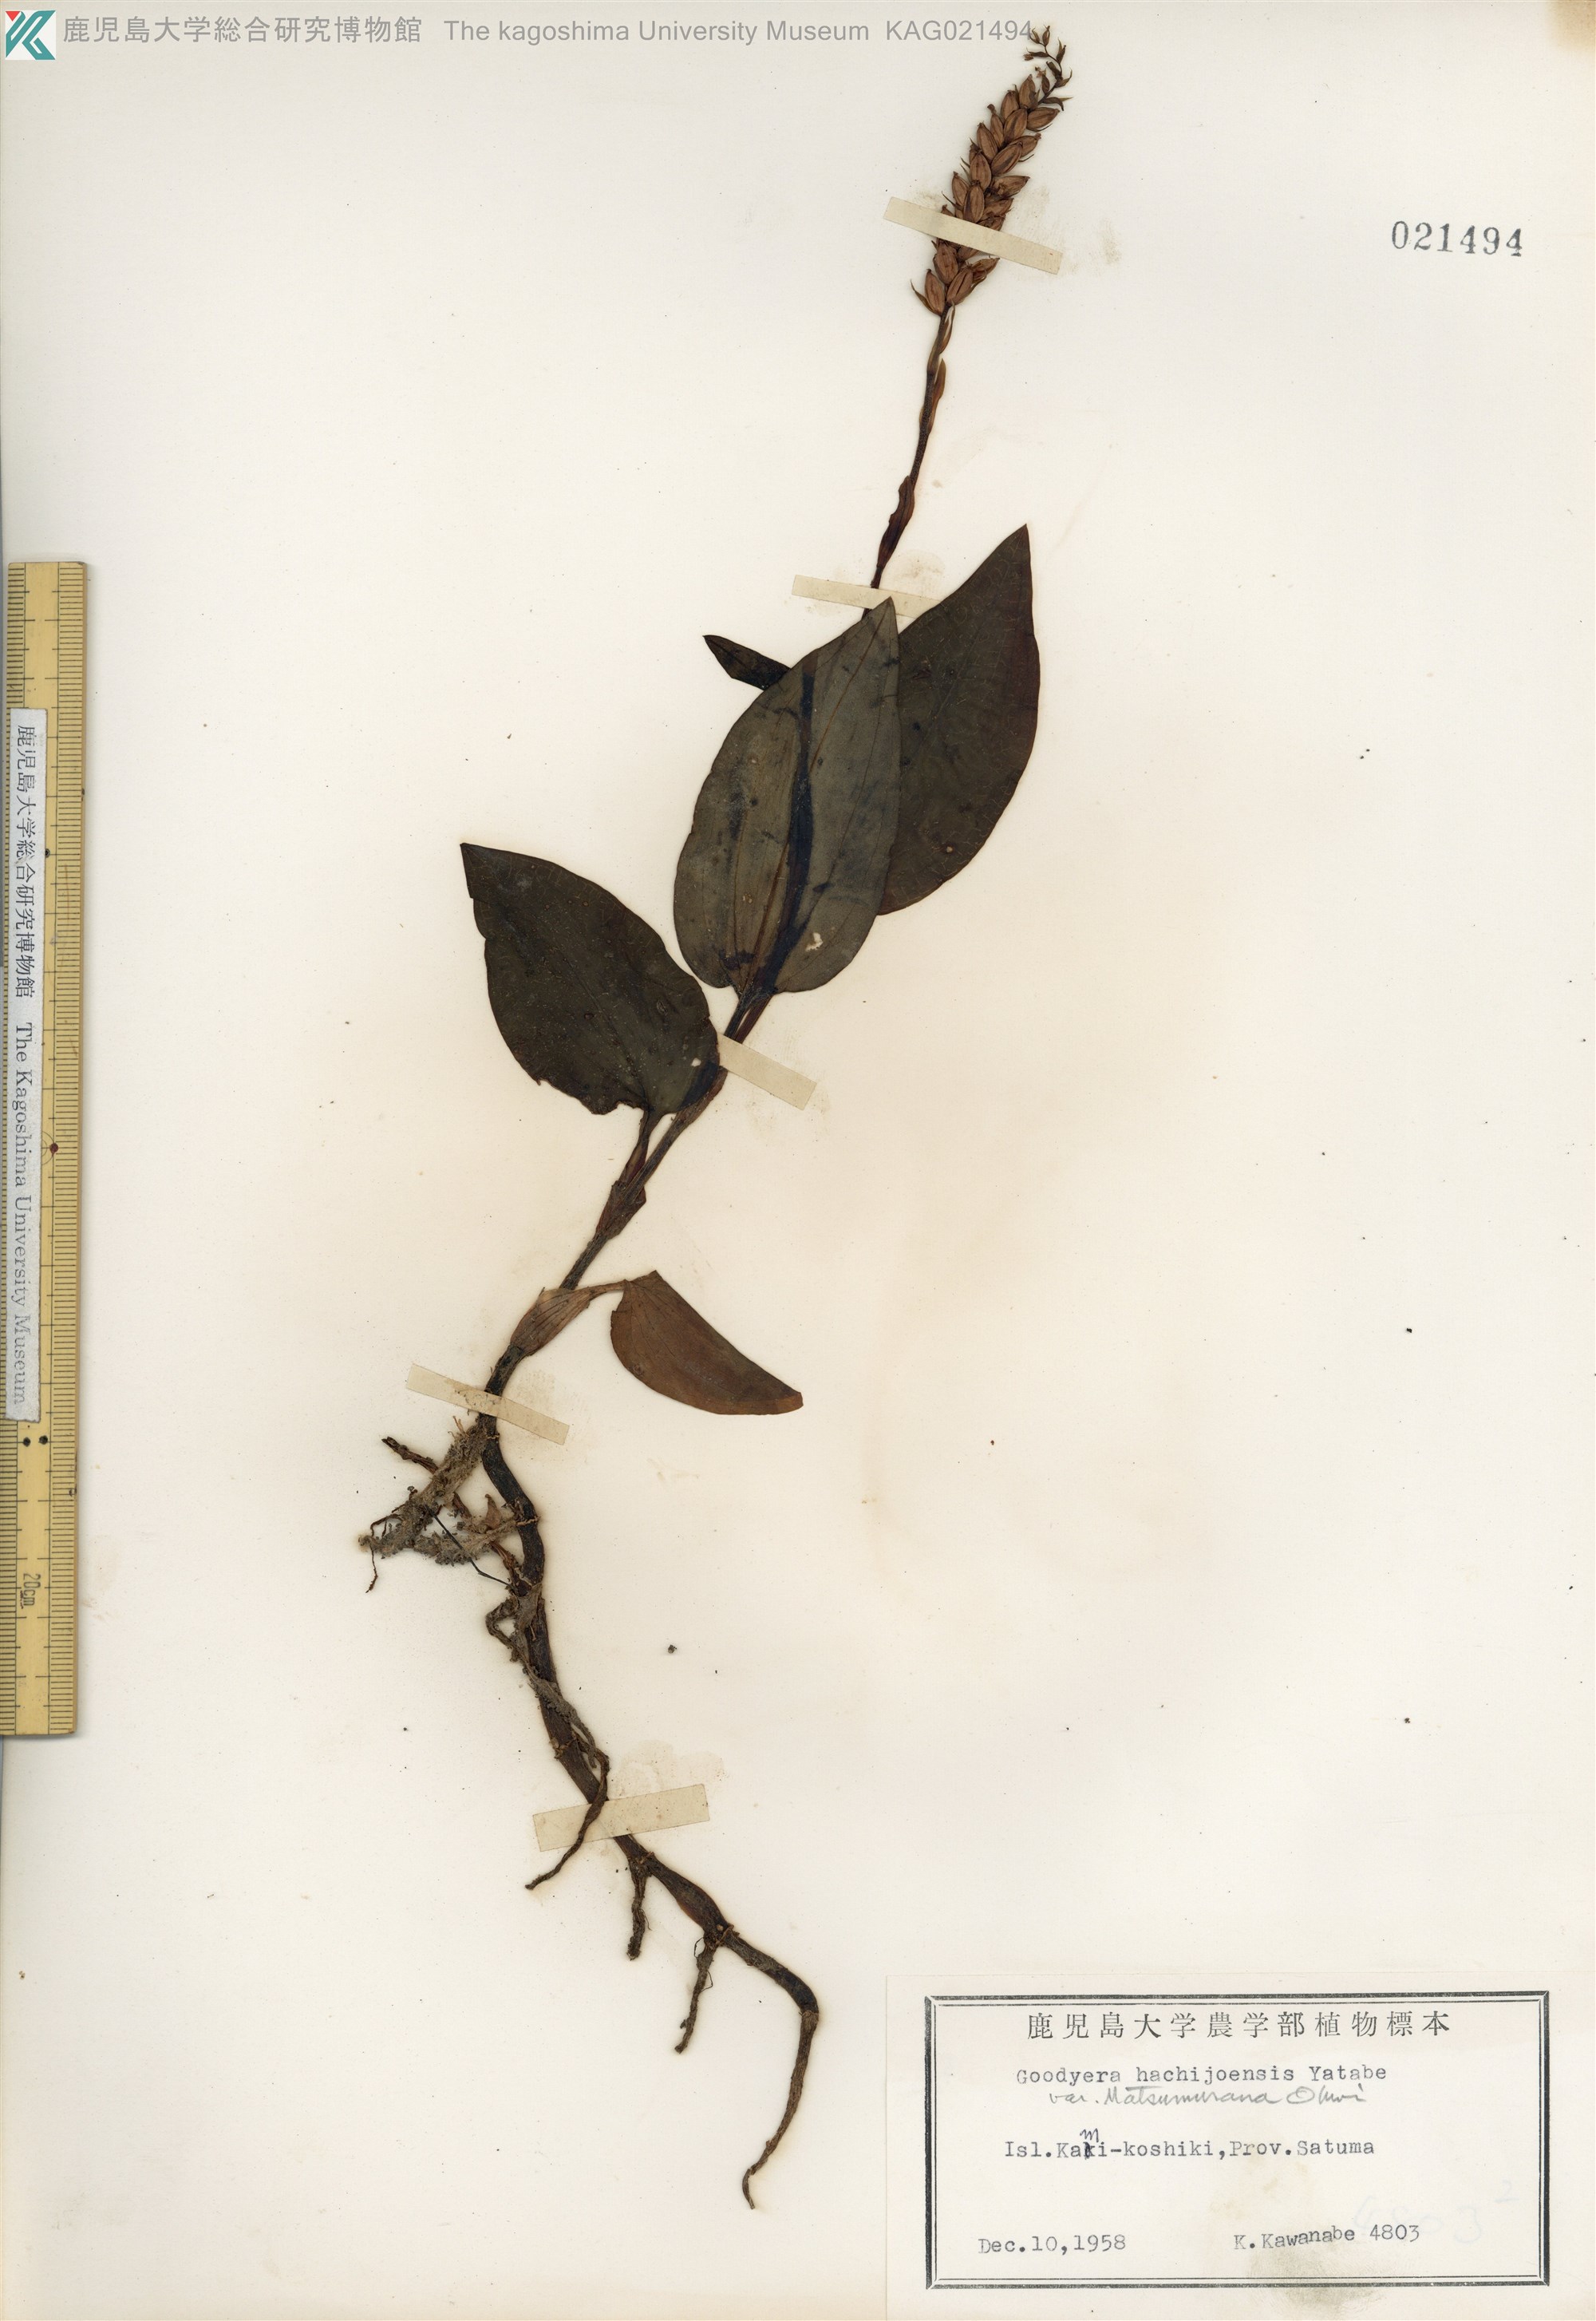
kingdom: Plantae
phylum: Tracheophyta
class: Liliopsida
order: Asparagales
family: Orchidaceae
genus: Goodyera
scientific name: Goodyera hachijoensis
